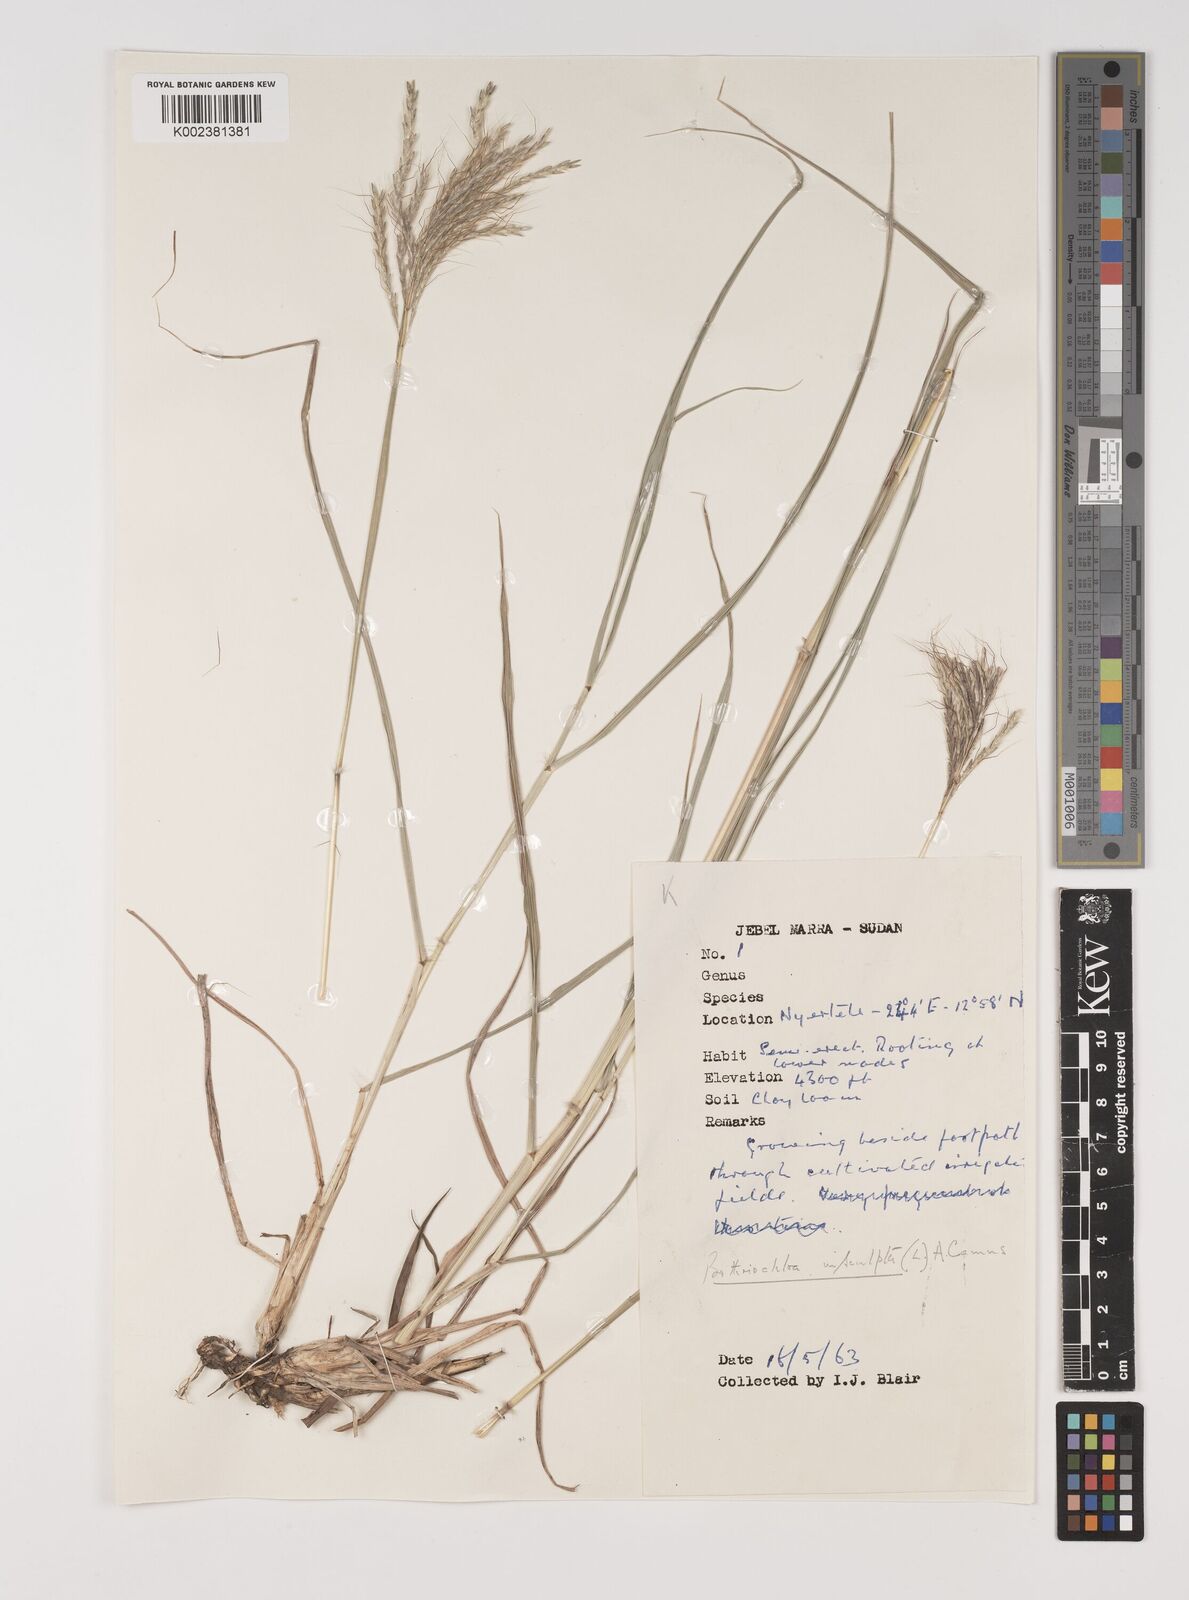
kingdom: Plantae
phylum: Tracheophyta
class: Liliopsida
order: Poales
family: Poaceae
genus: Bothriochloa
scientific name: Bothriochloa insculpta
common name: Creeping-bluegrass
